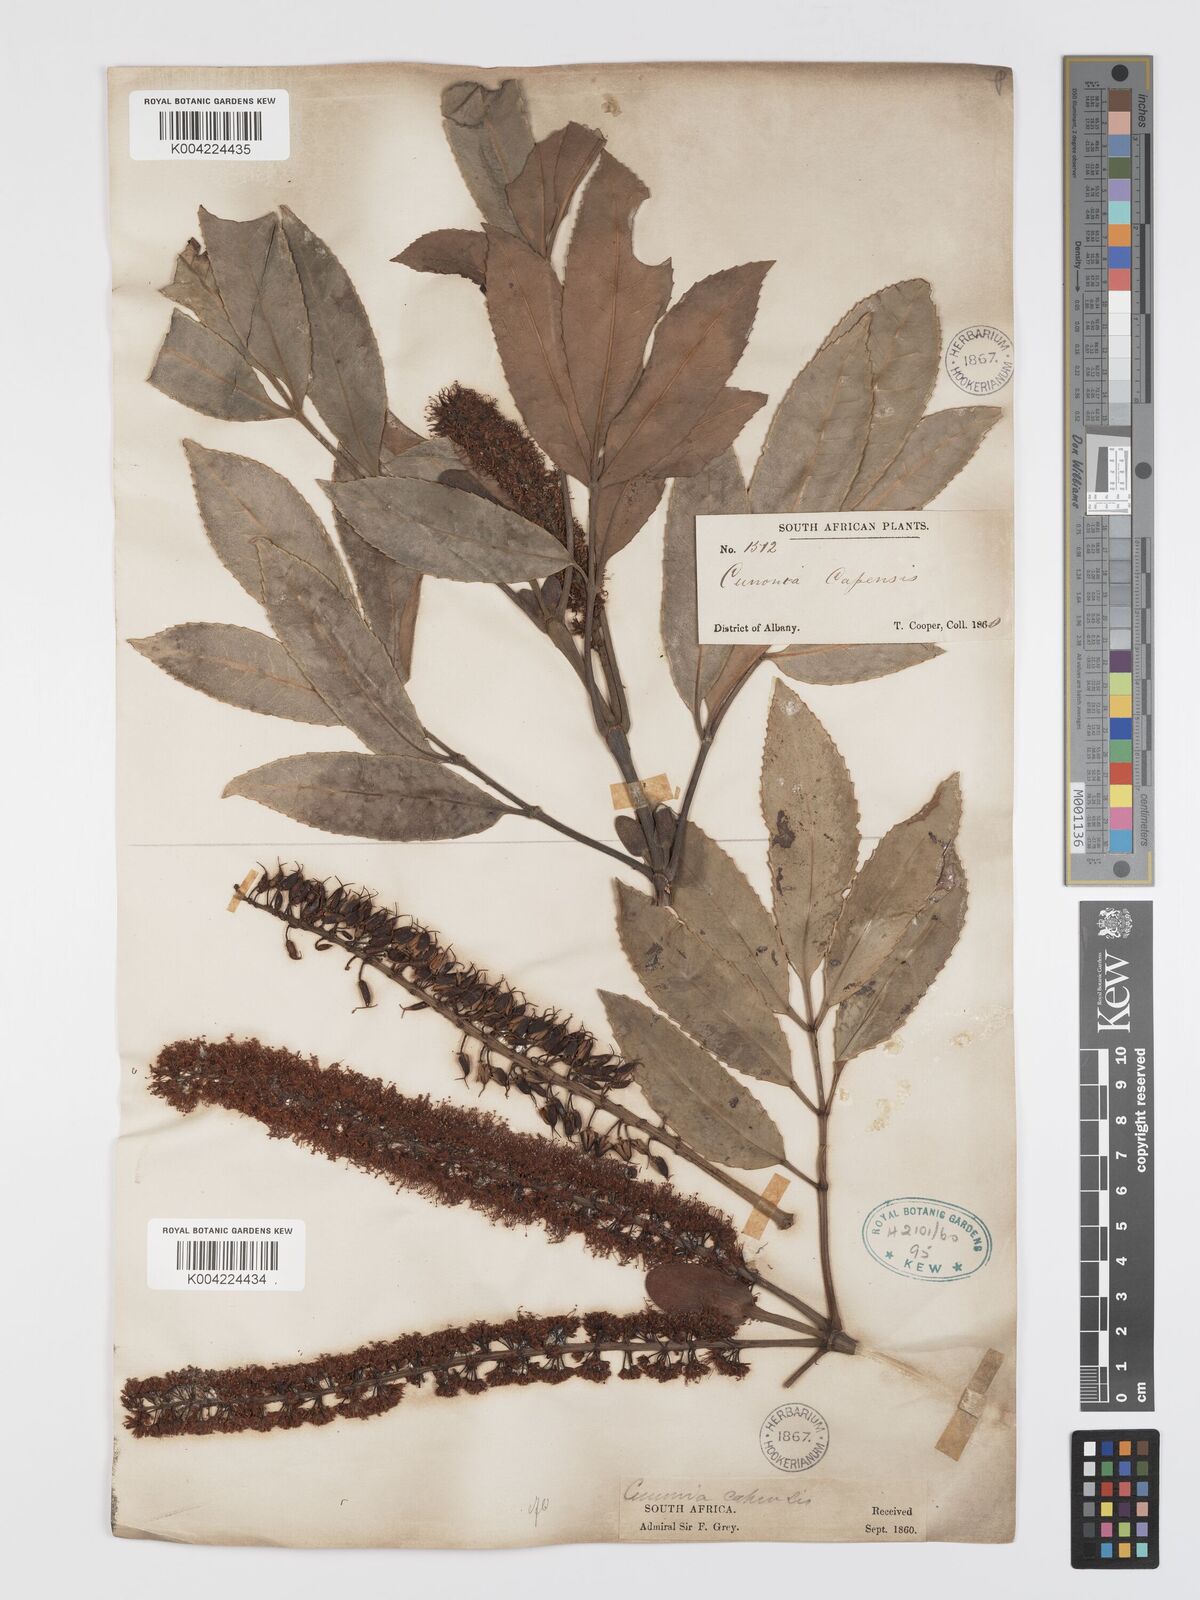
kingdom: Plantae
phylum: Tracheophyta
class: Magnoliopsida
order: Oxalidales
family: Cunoniaceae
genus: Cunonia
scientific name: Cunonia capensis
